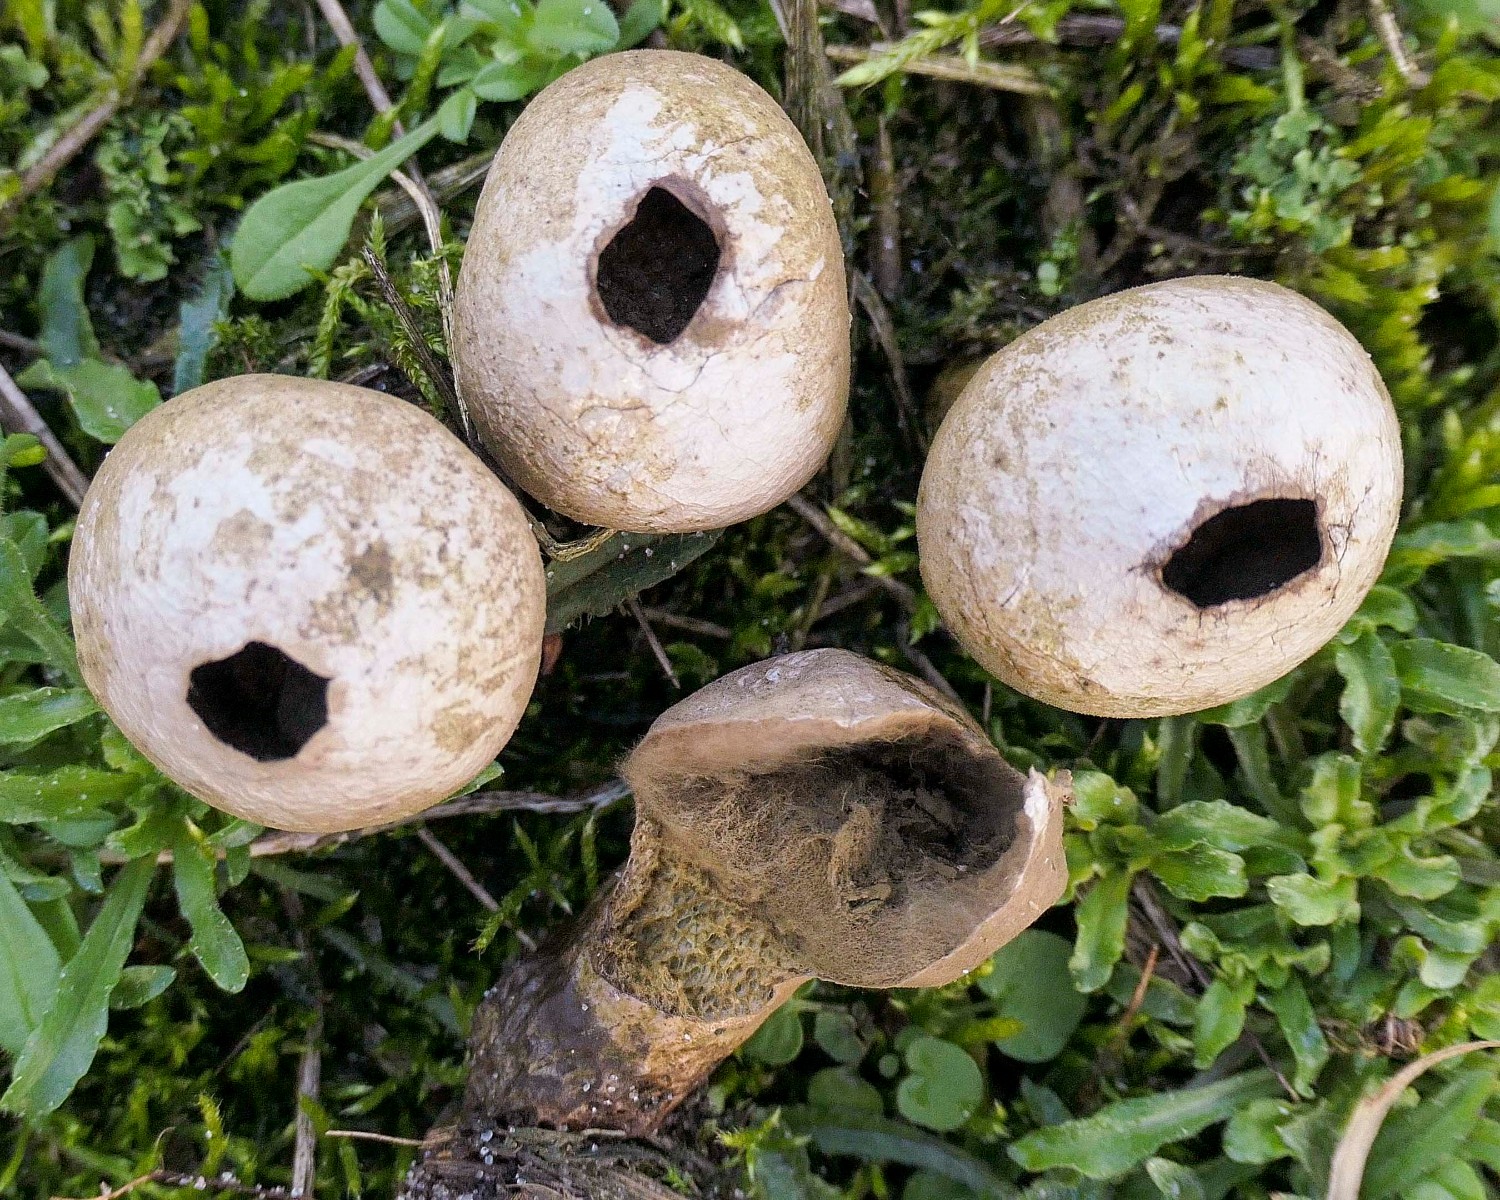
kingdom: Fungi
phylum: Basidiomycota
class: Agaricomycetes
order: Agaricales
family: Lycoperdaceae
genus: Lycoperdon
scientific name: Lycoperdon lividum
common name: mark-støvbold
